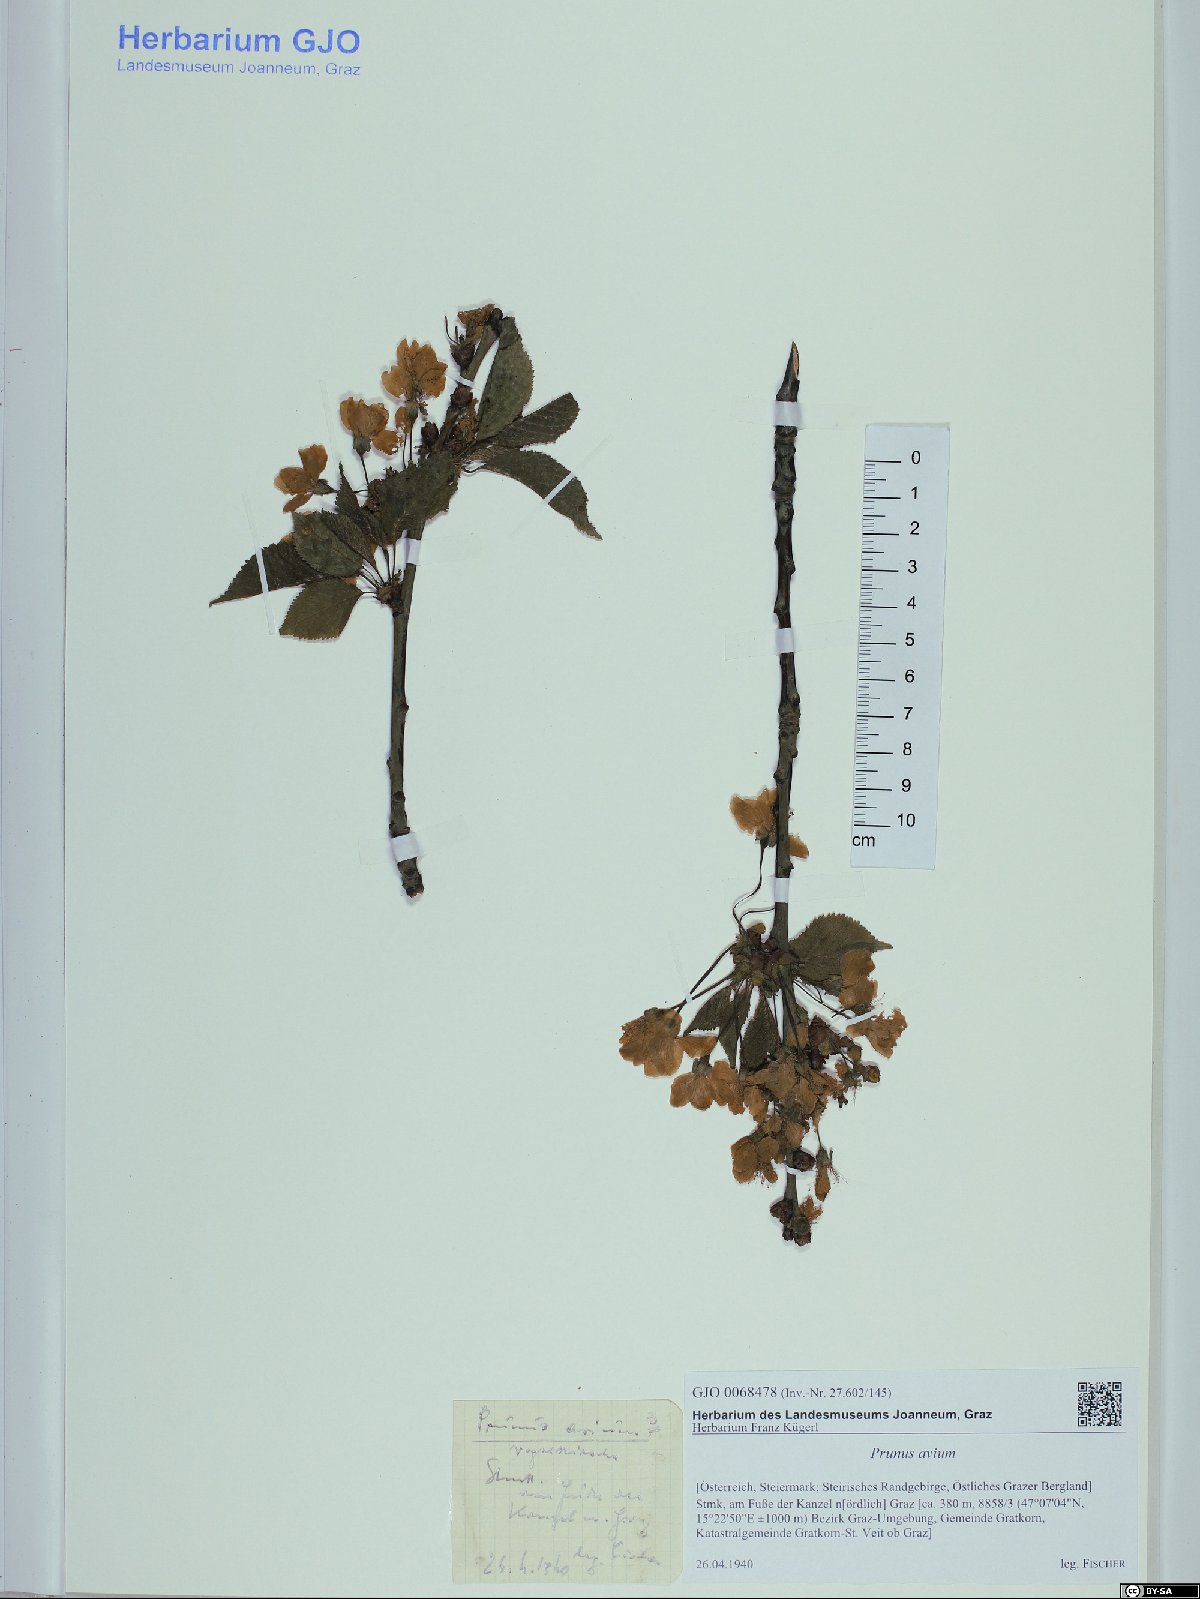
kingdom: Plantae
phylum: Tracheophyta
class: Magnoliopsida
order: Rosales
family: Rosaceae
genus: Prunus
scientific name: Prunus avium
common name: Sweet cherry
